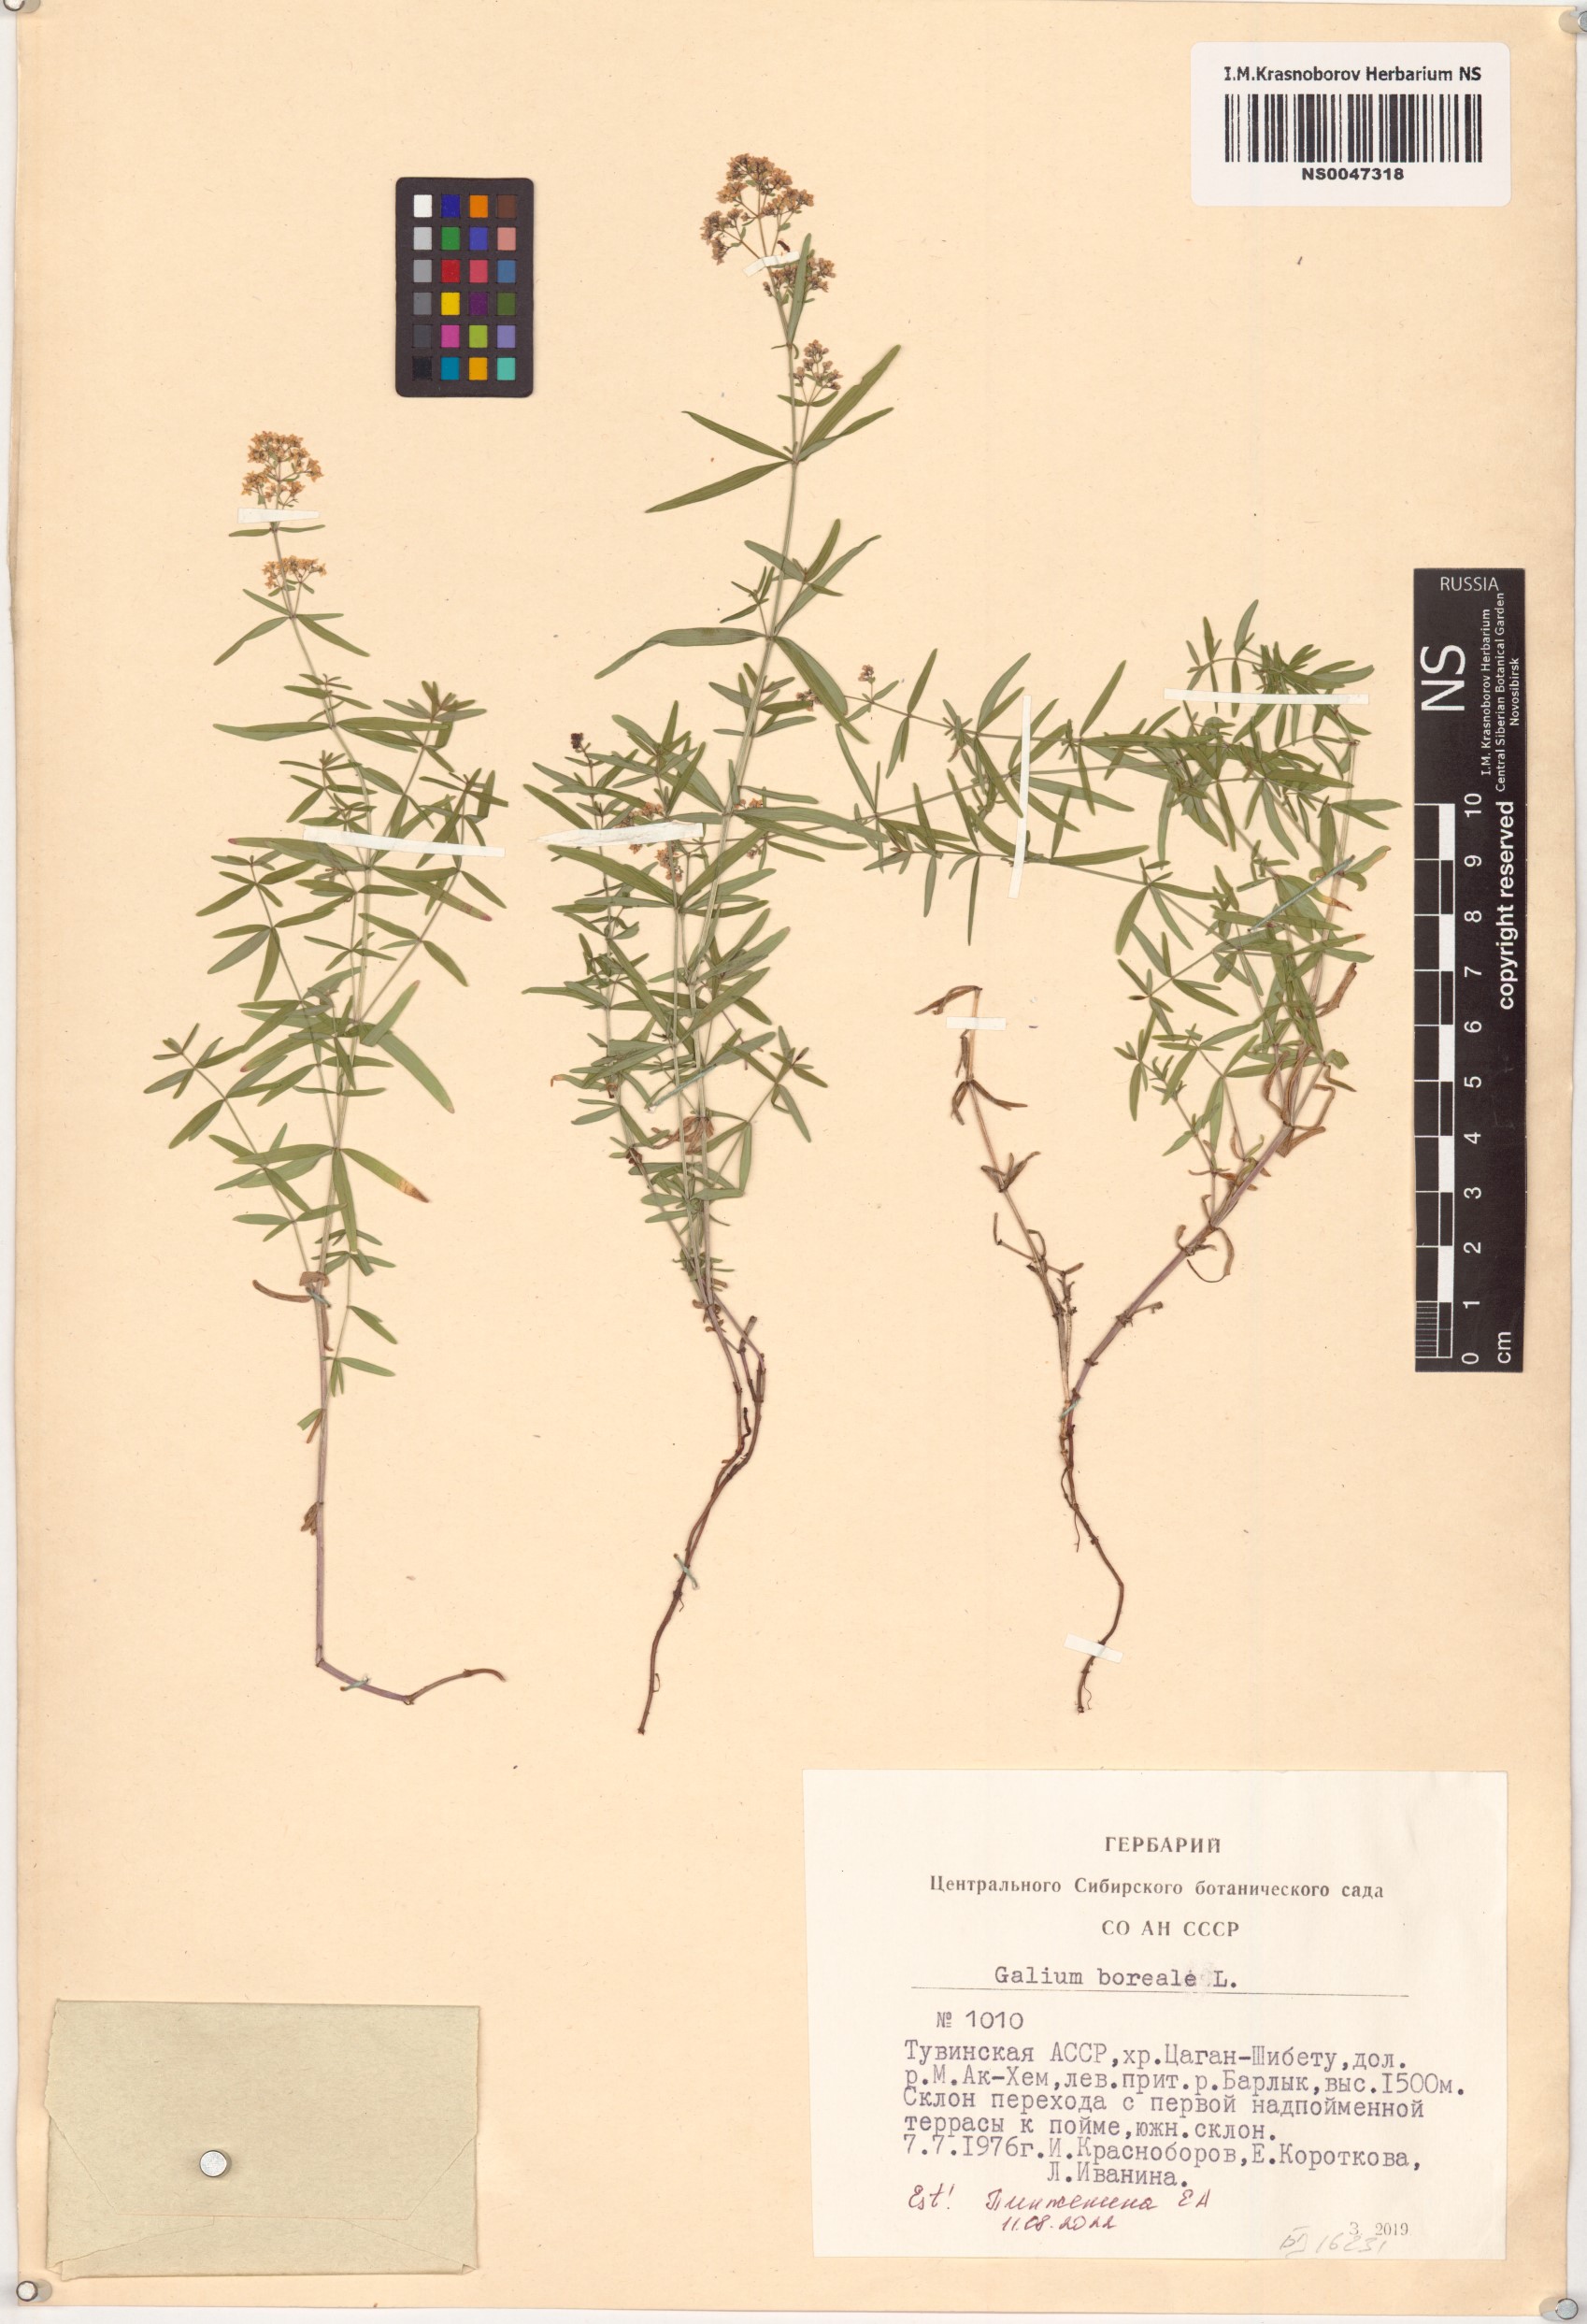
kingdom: Plantae
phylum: Tracheophyta
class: Magnoliopsida
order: Gentianales
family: Rubiaceae
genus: Galium
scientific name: Galium boreale
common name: Northern bedstraw
